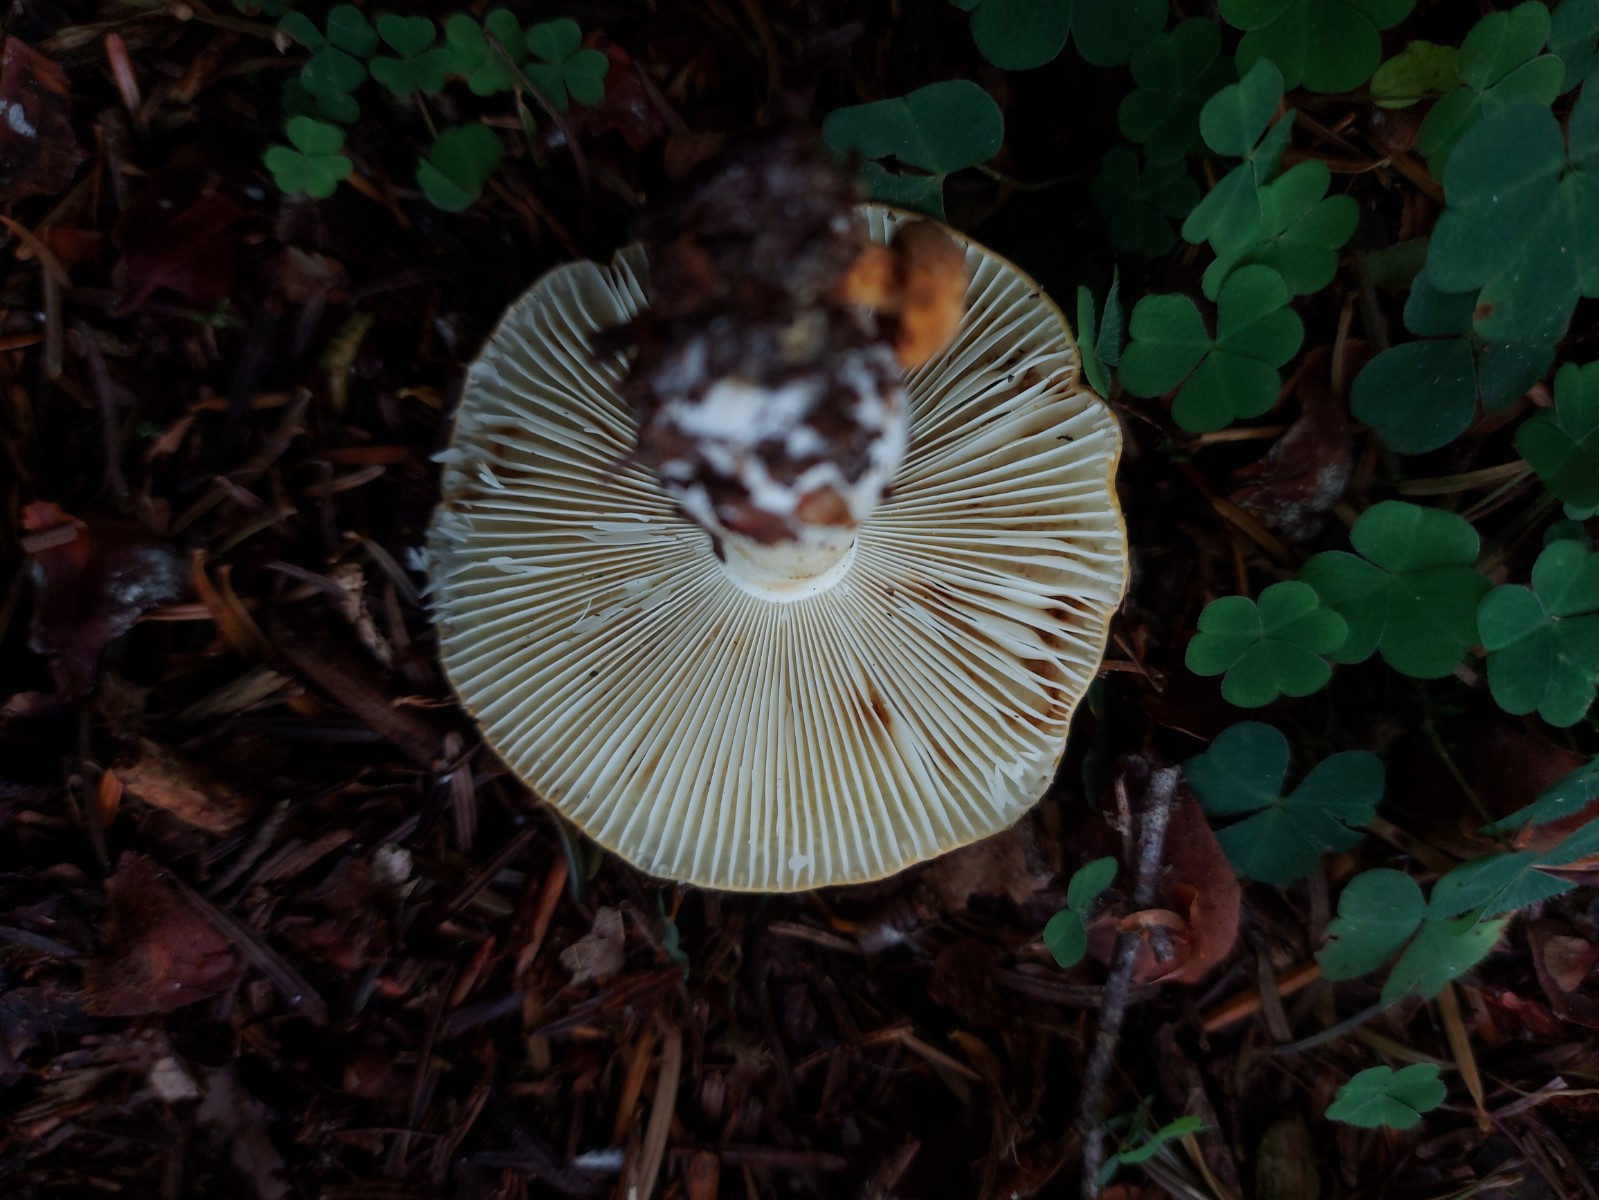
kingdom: Fungi
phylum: Basidiomycota
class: Agaricomycetes
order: Russulales
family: Russulaceae
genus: Russula
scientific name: Russula ochroleuca
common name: okkergul skørhat
